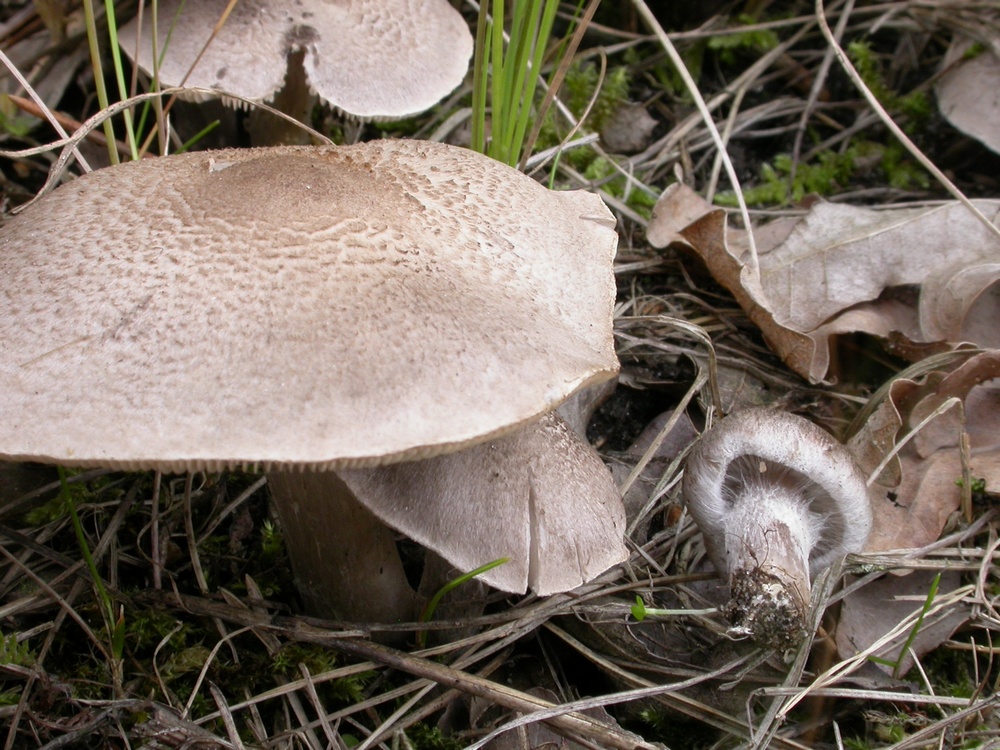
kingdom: Fungi
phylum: Basidiomycota
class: Agaricomycetes
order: Agaricales
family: Tricholomataceae
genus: Tricholoma
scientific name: Tricholoma argyraceum
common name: slør-ridderhat
